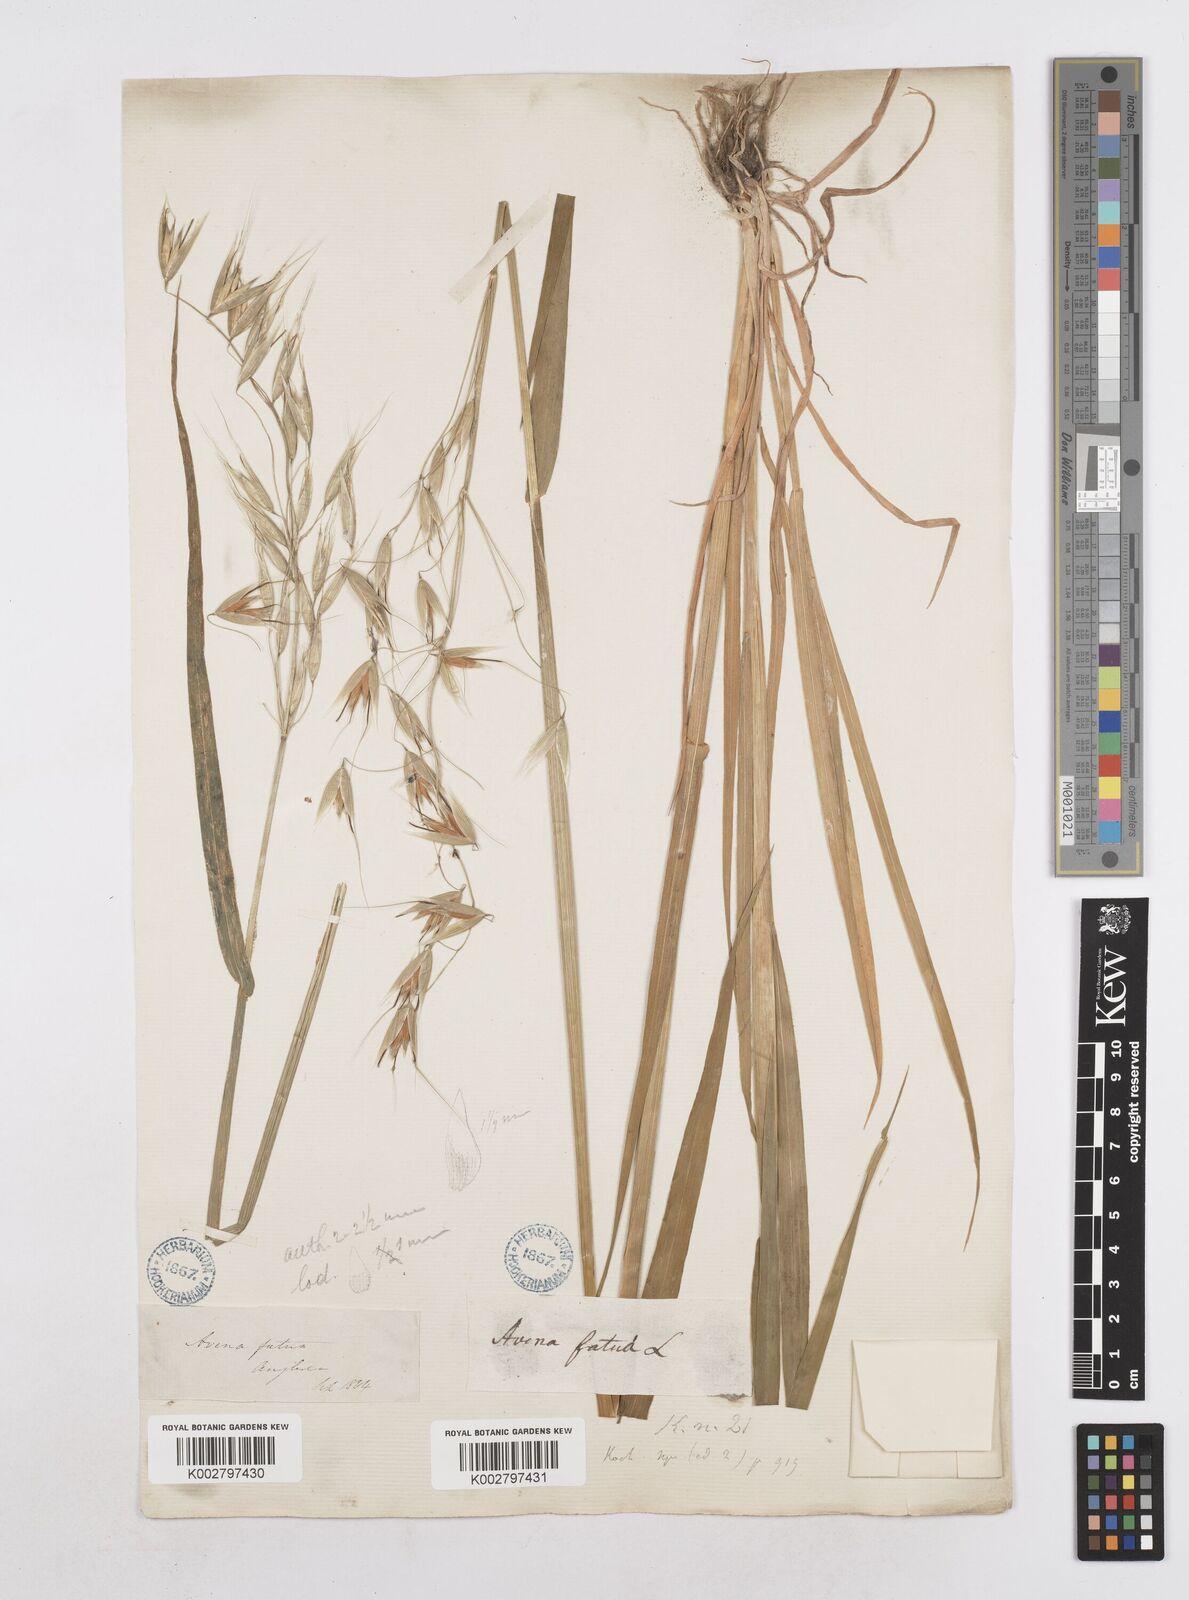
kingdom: Plantae
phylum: Tracheophyta
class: Liliopsida
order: Poales
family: Poaceae
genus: Avena
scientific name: Avena fatua
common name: Wild oat
